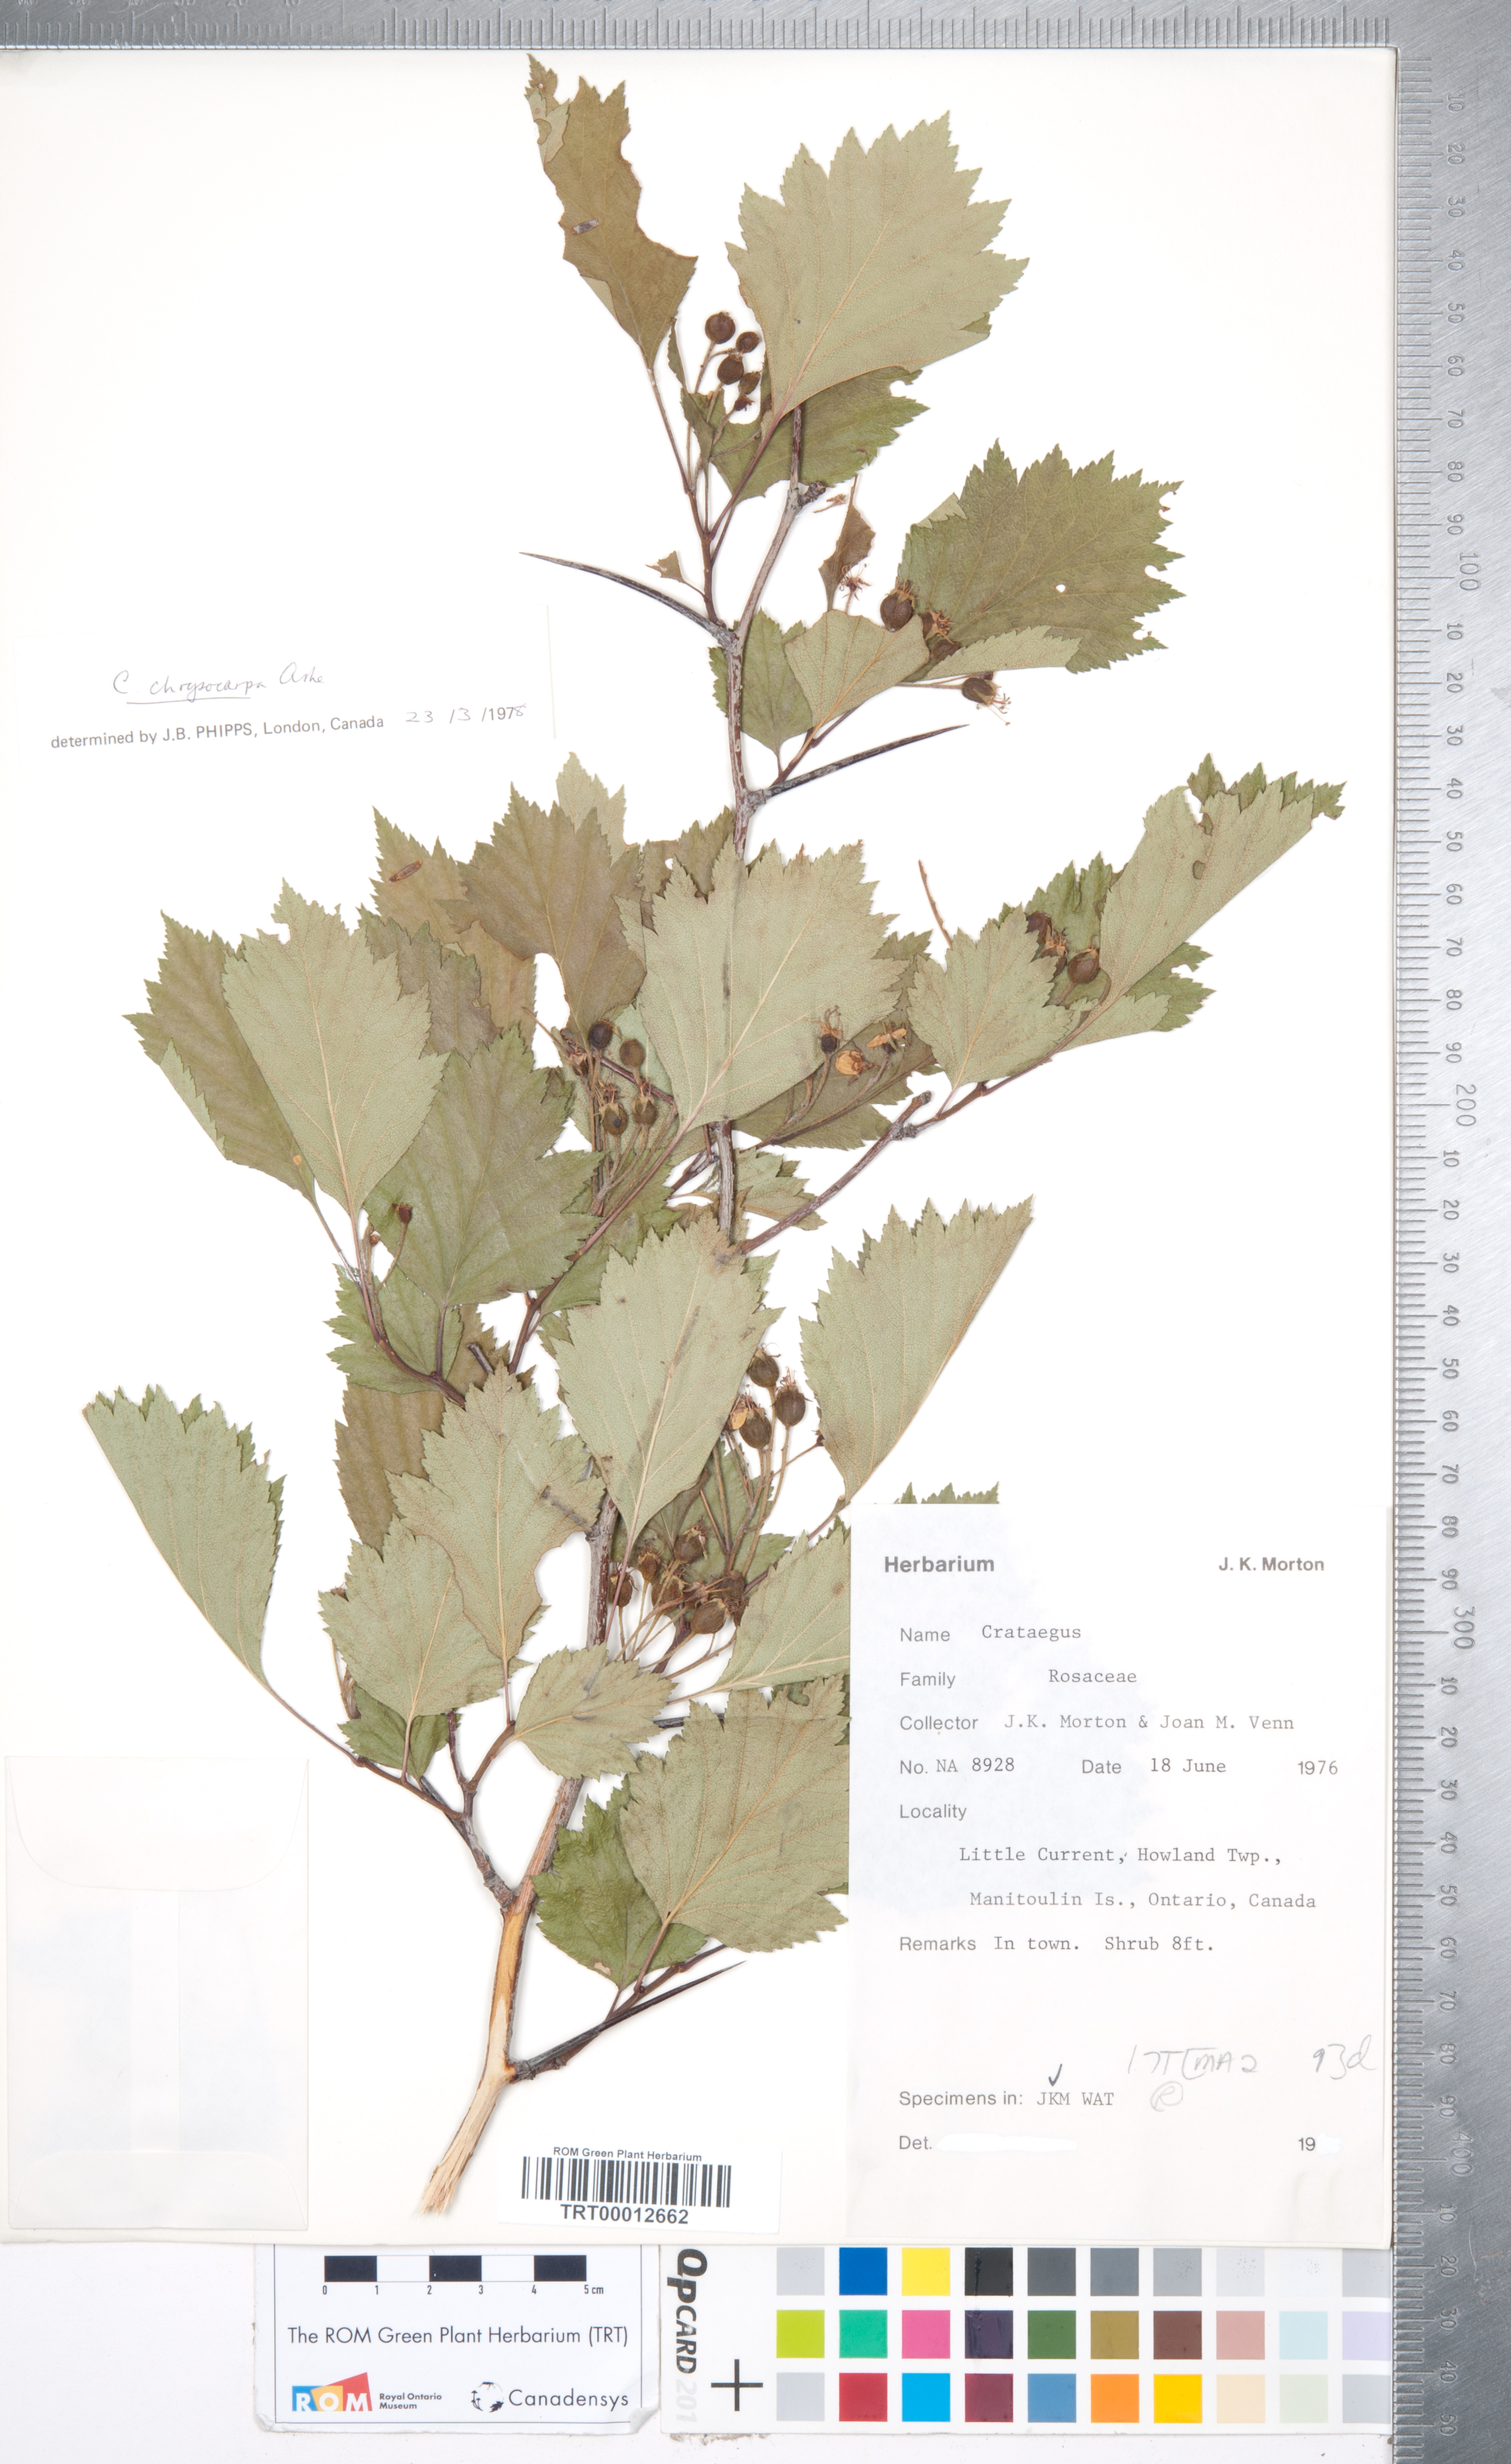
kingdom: Plantae
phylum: Tracheophyta
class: Magnoliopsida
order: Rosales
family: Rosaceae
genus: Crataegus
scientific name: Crataegus chrysocarpa
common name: Fire-berry hawthorn
